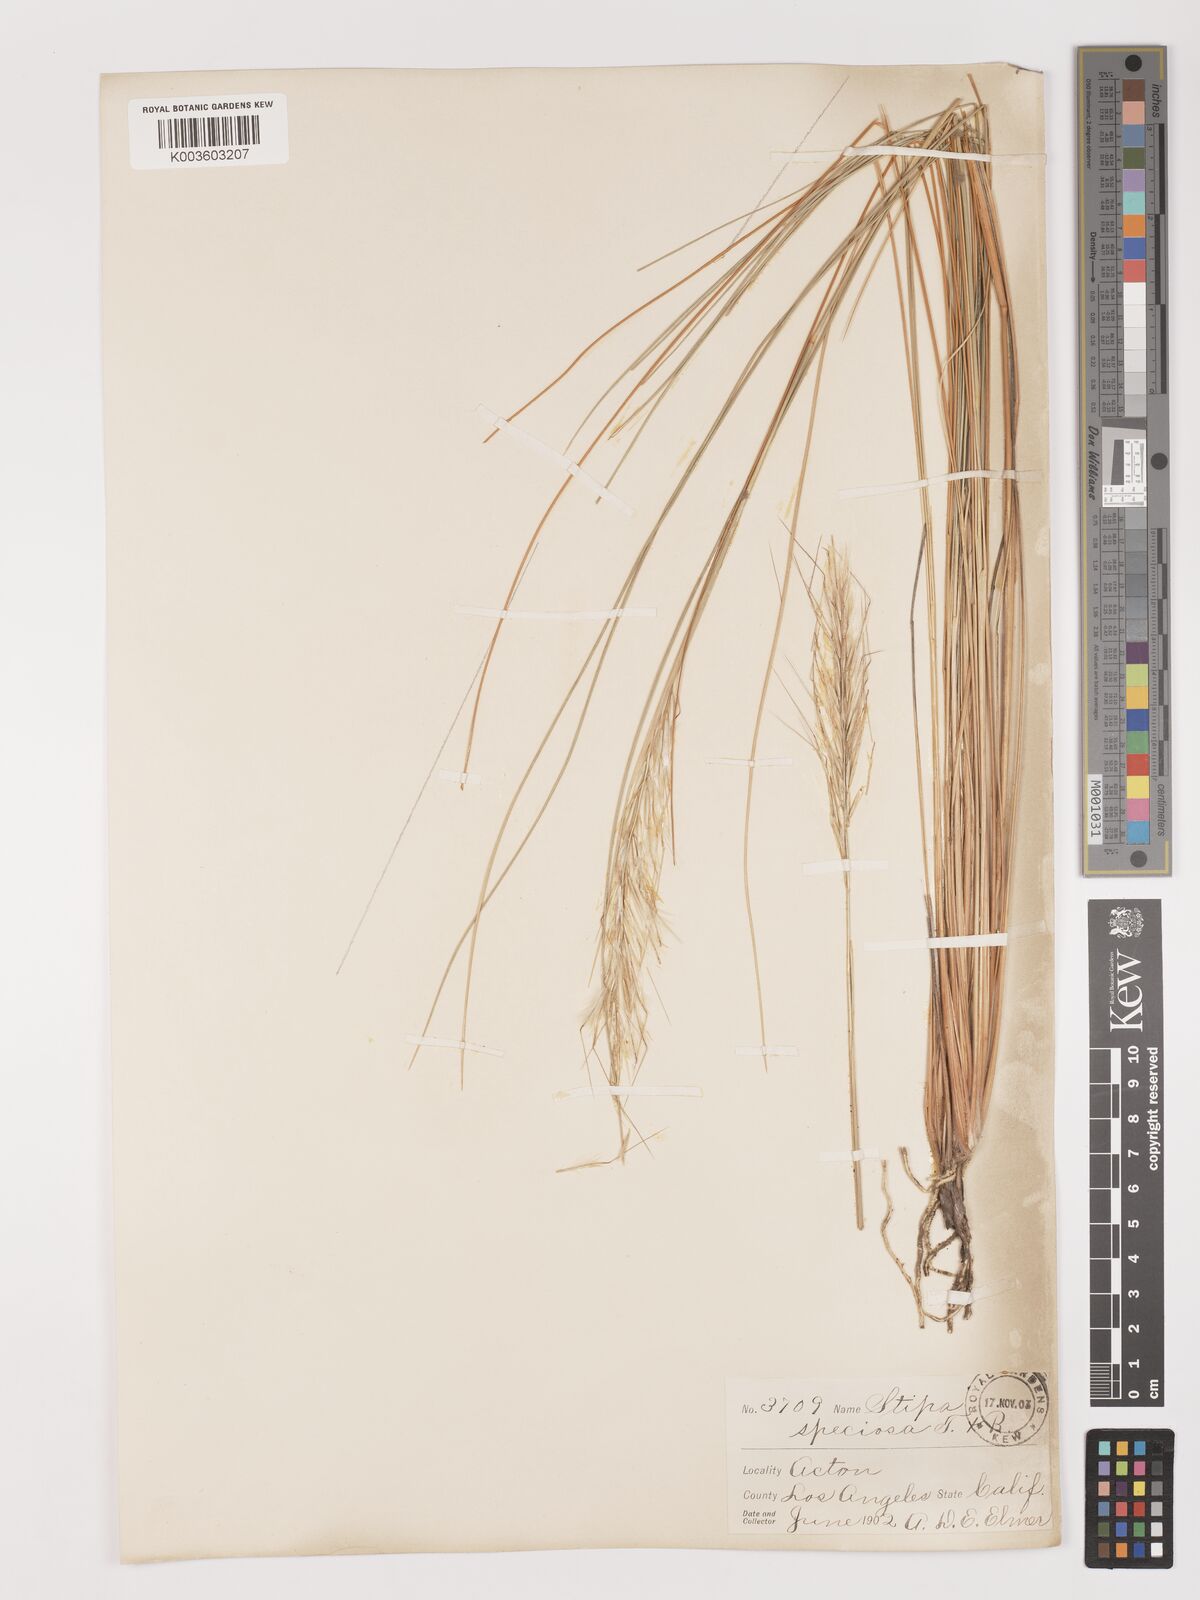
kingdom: Plantae
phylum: Tracheophyta
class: Liliopsida
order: Poales
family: Poaceae
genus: Pappostipa
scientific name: Pappostipa speciosa
